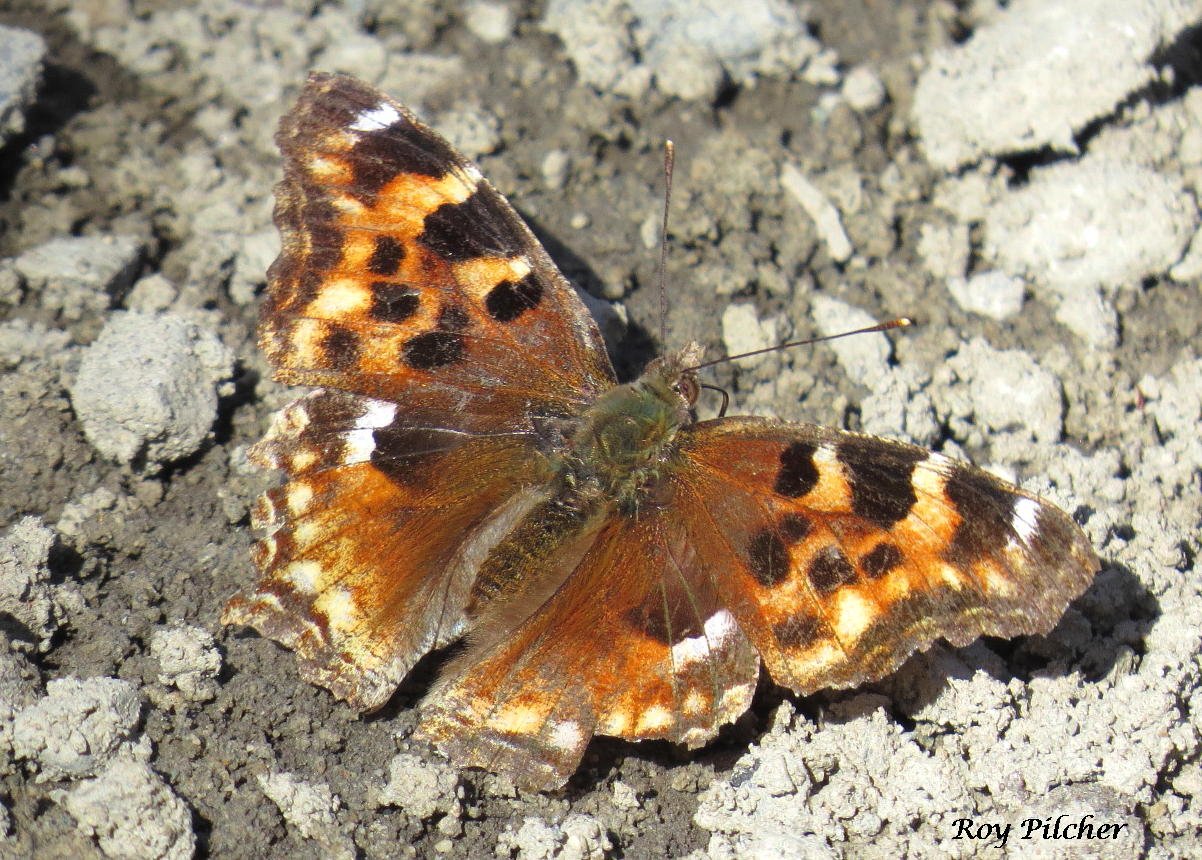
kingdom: Animalia
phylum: Arthropoda
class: Insecta
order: Lepidoptera
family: Nymphalidae
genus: Polygonia
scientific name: Polygonia vaualbum
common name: Compton Tortoiseshell
